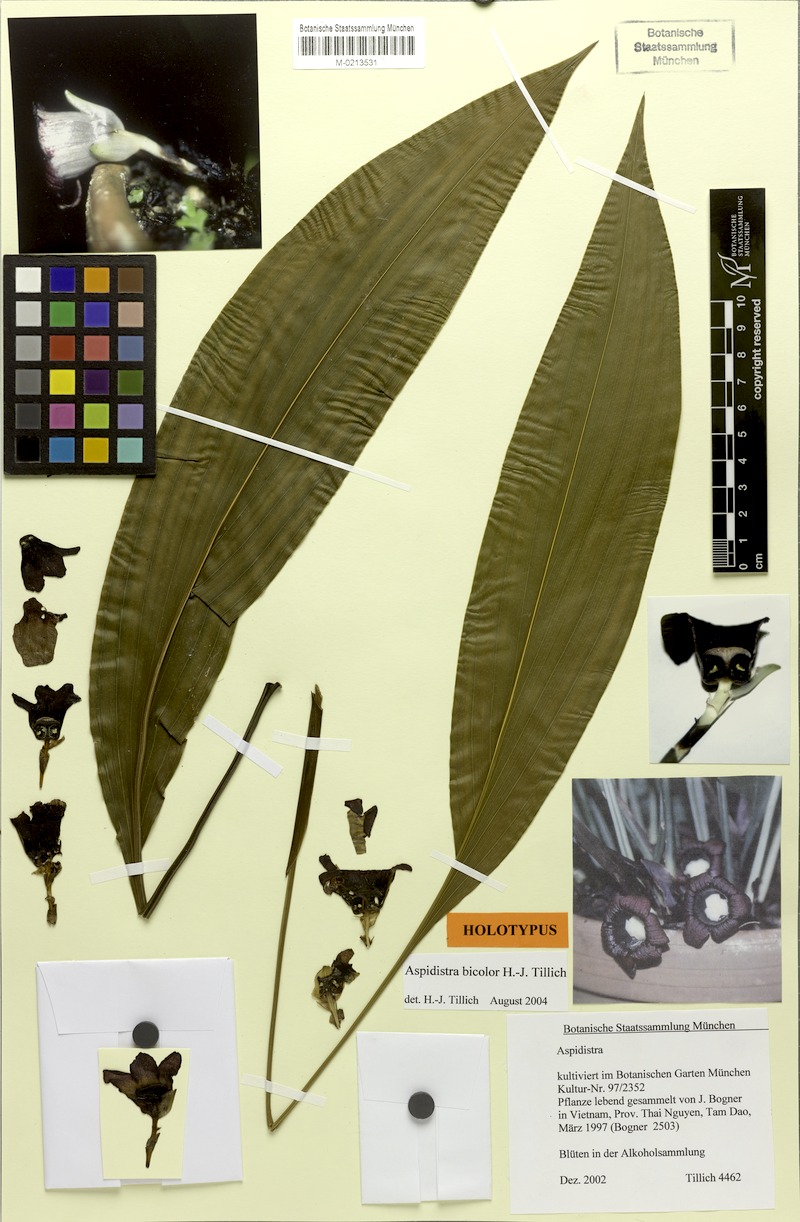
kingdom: Plantae
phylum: Tracheophyta
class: Liliopsida
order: Asparagales
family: Asparagaceae
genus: Aspidistra
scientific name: Aspidistra bicolor
